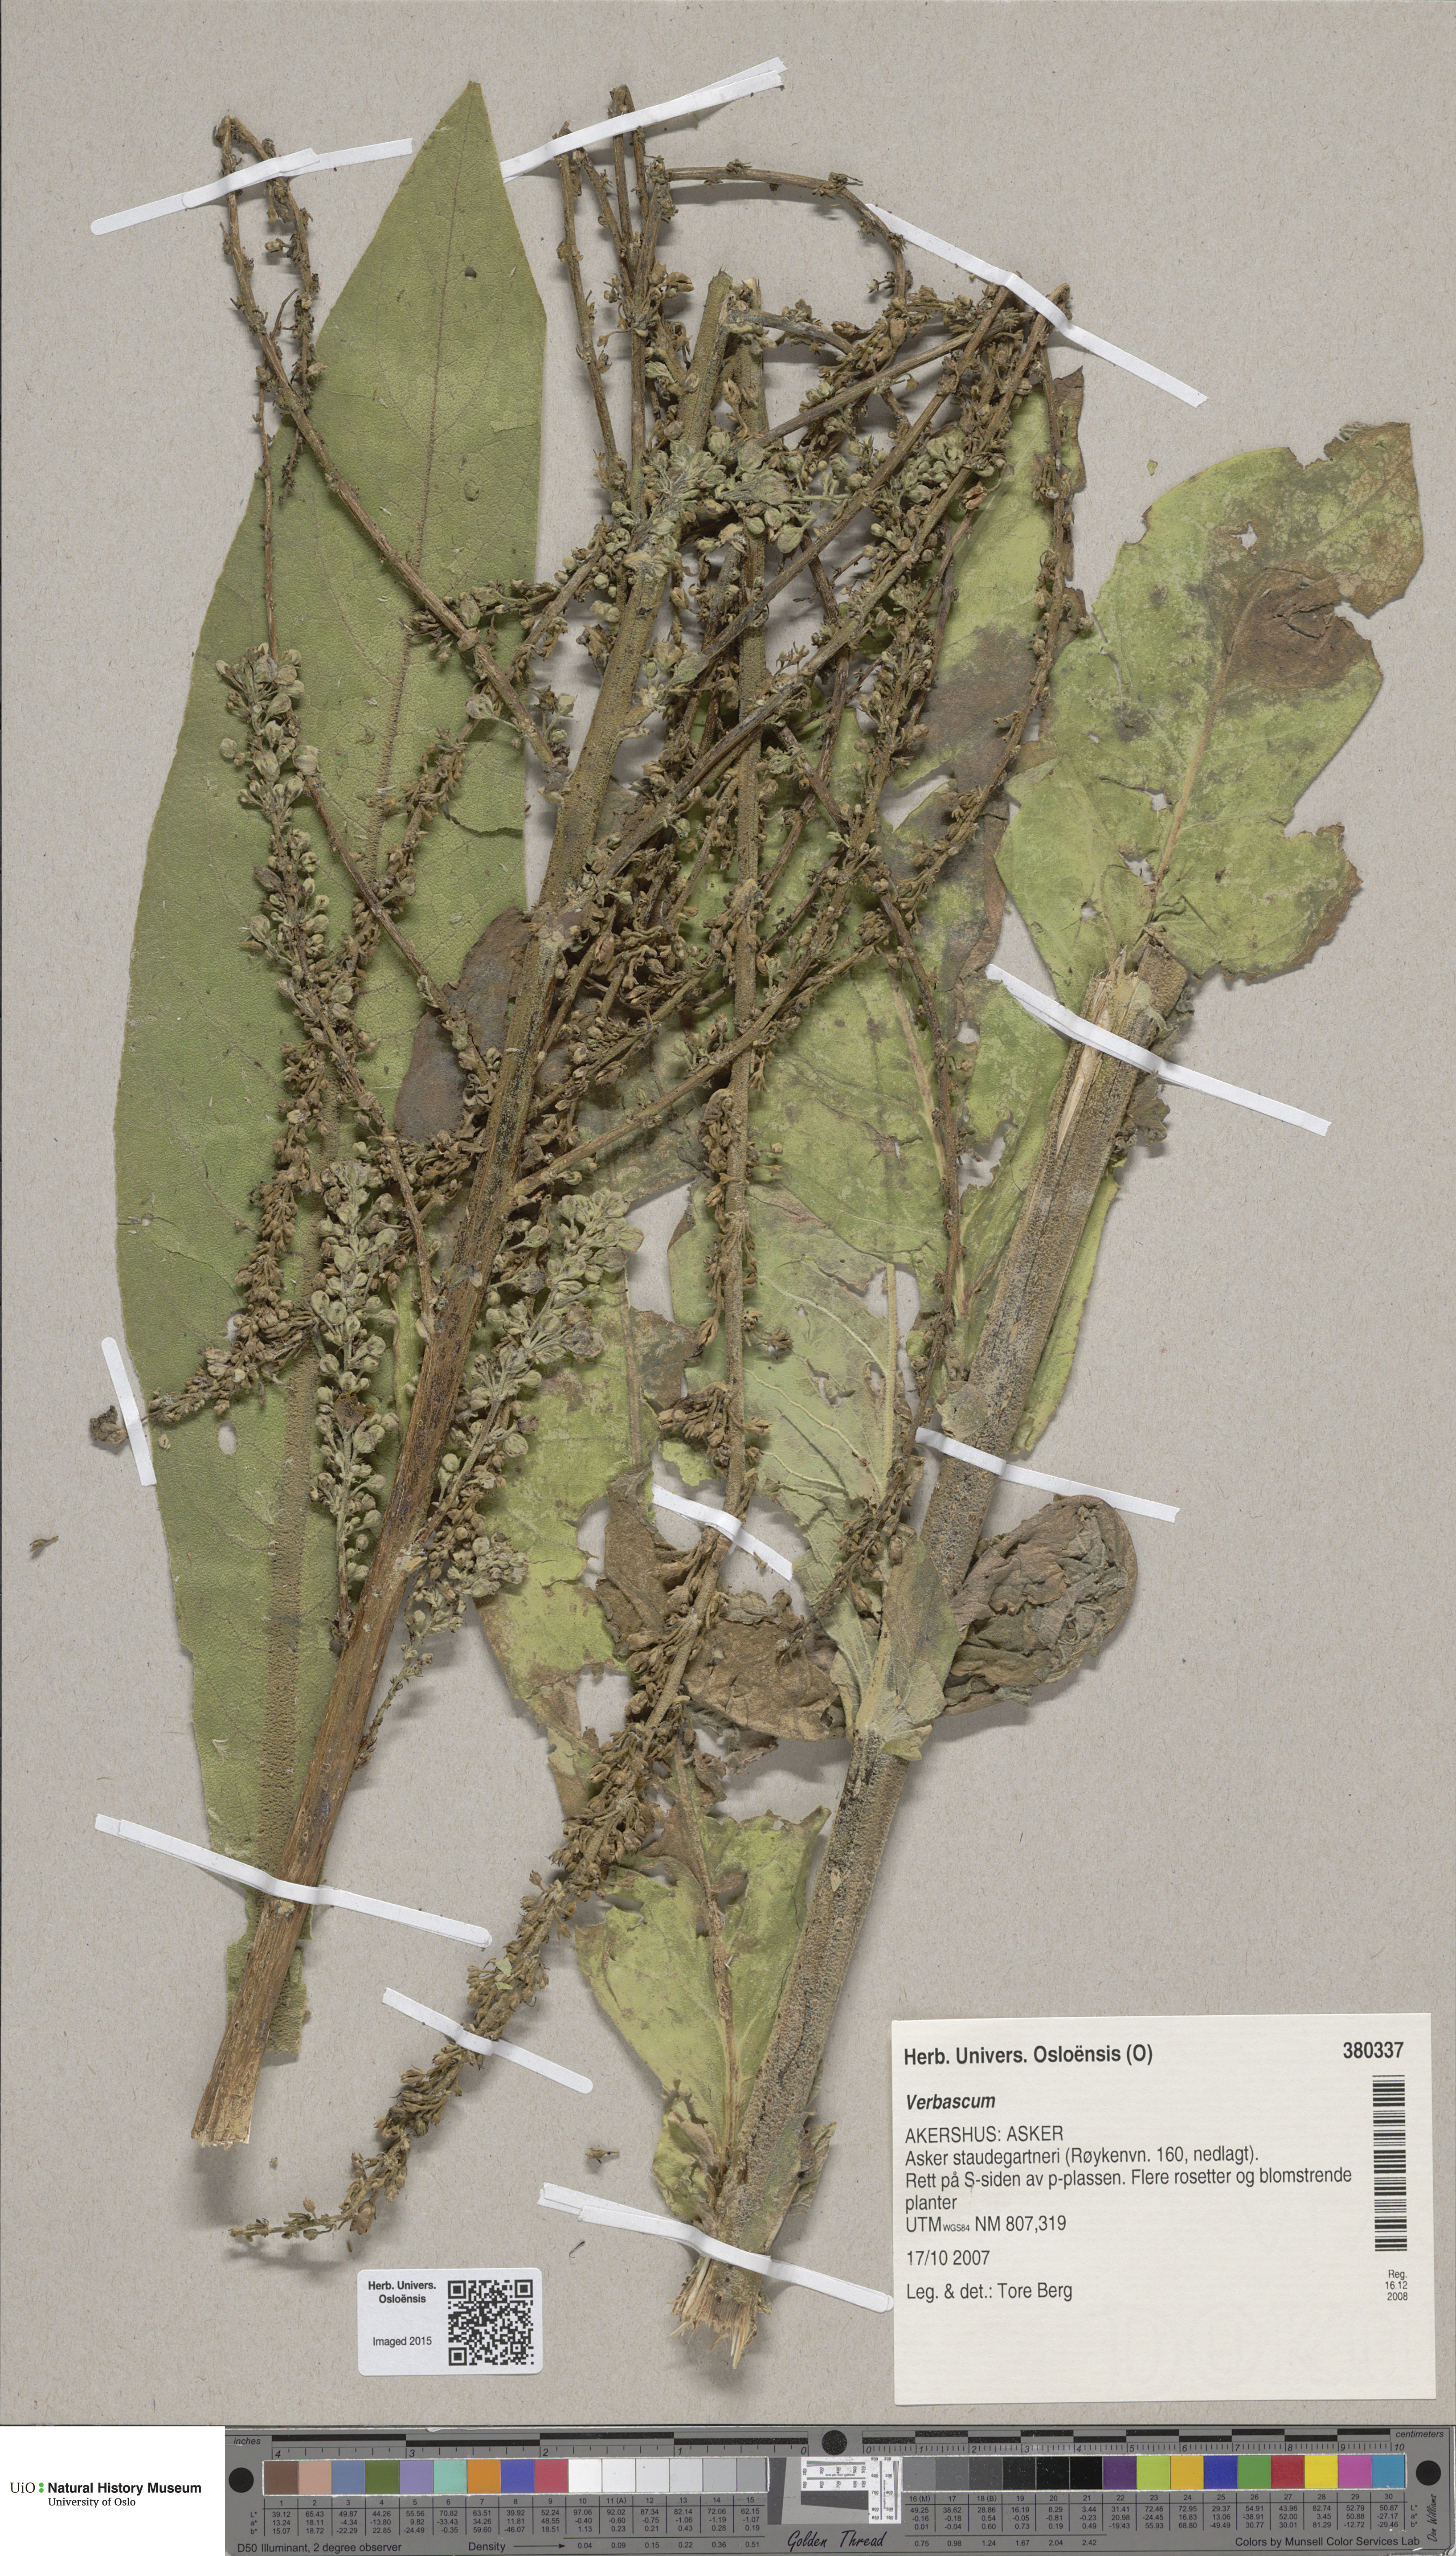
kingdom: Plantae
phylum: Tracheophyta
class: Magnoliopsida
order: Lamiales
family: Scrophulariaceae
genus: Verbascum
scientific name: Verbascum speciosum
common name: Hungarian mullein
